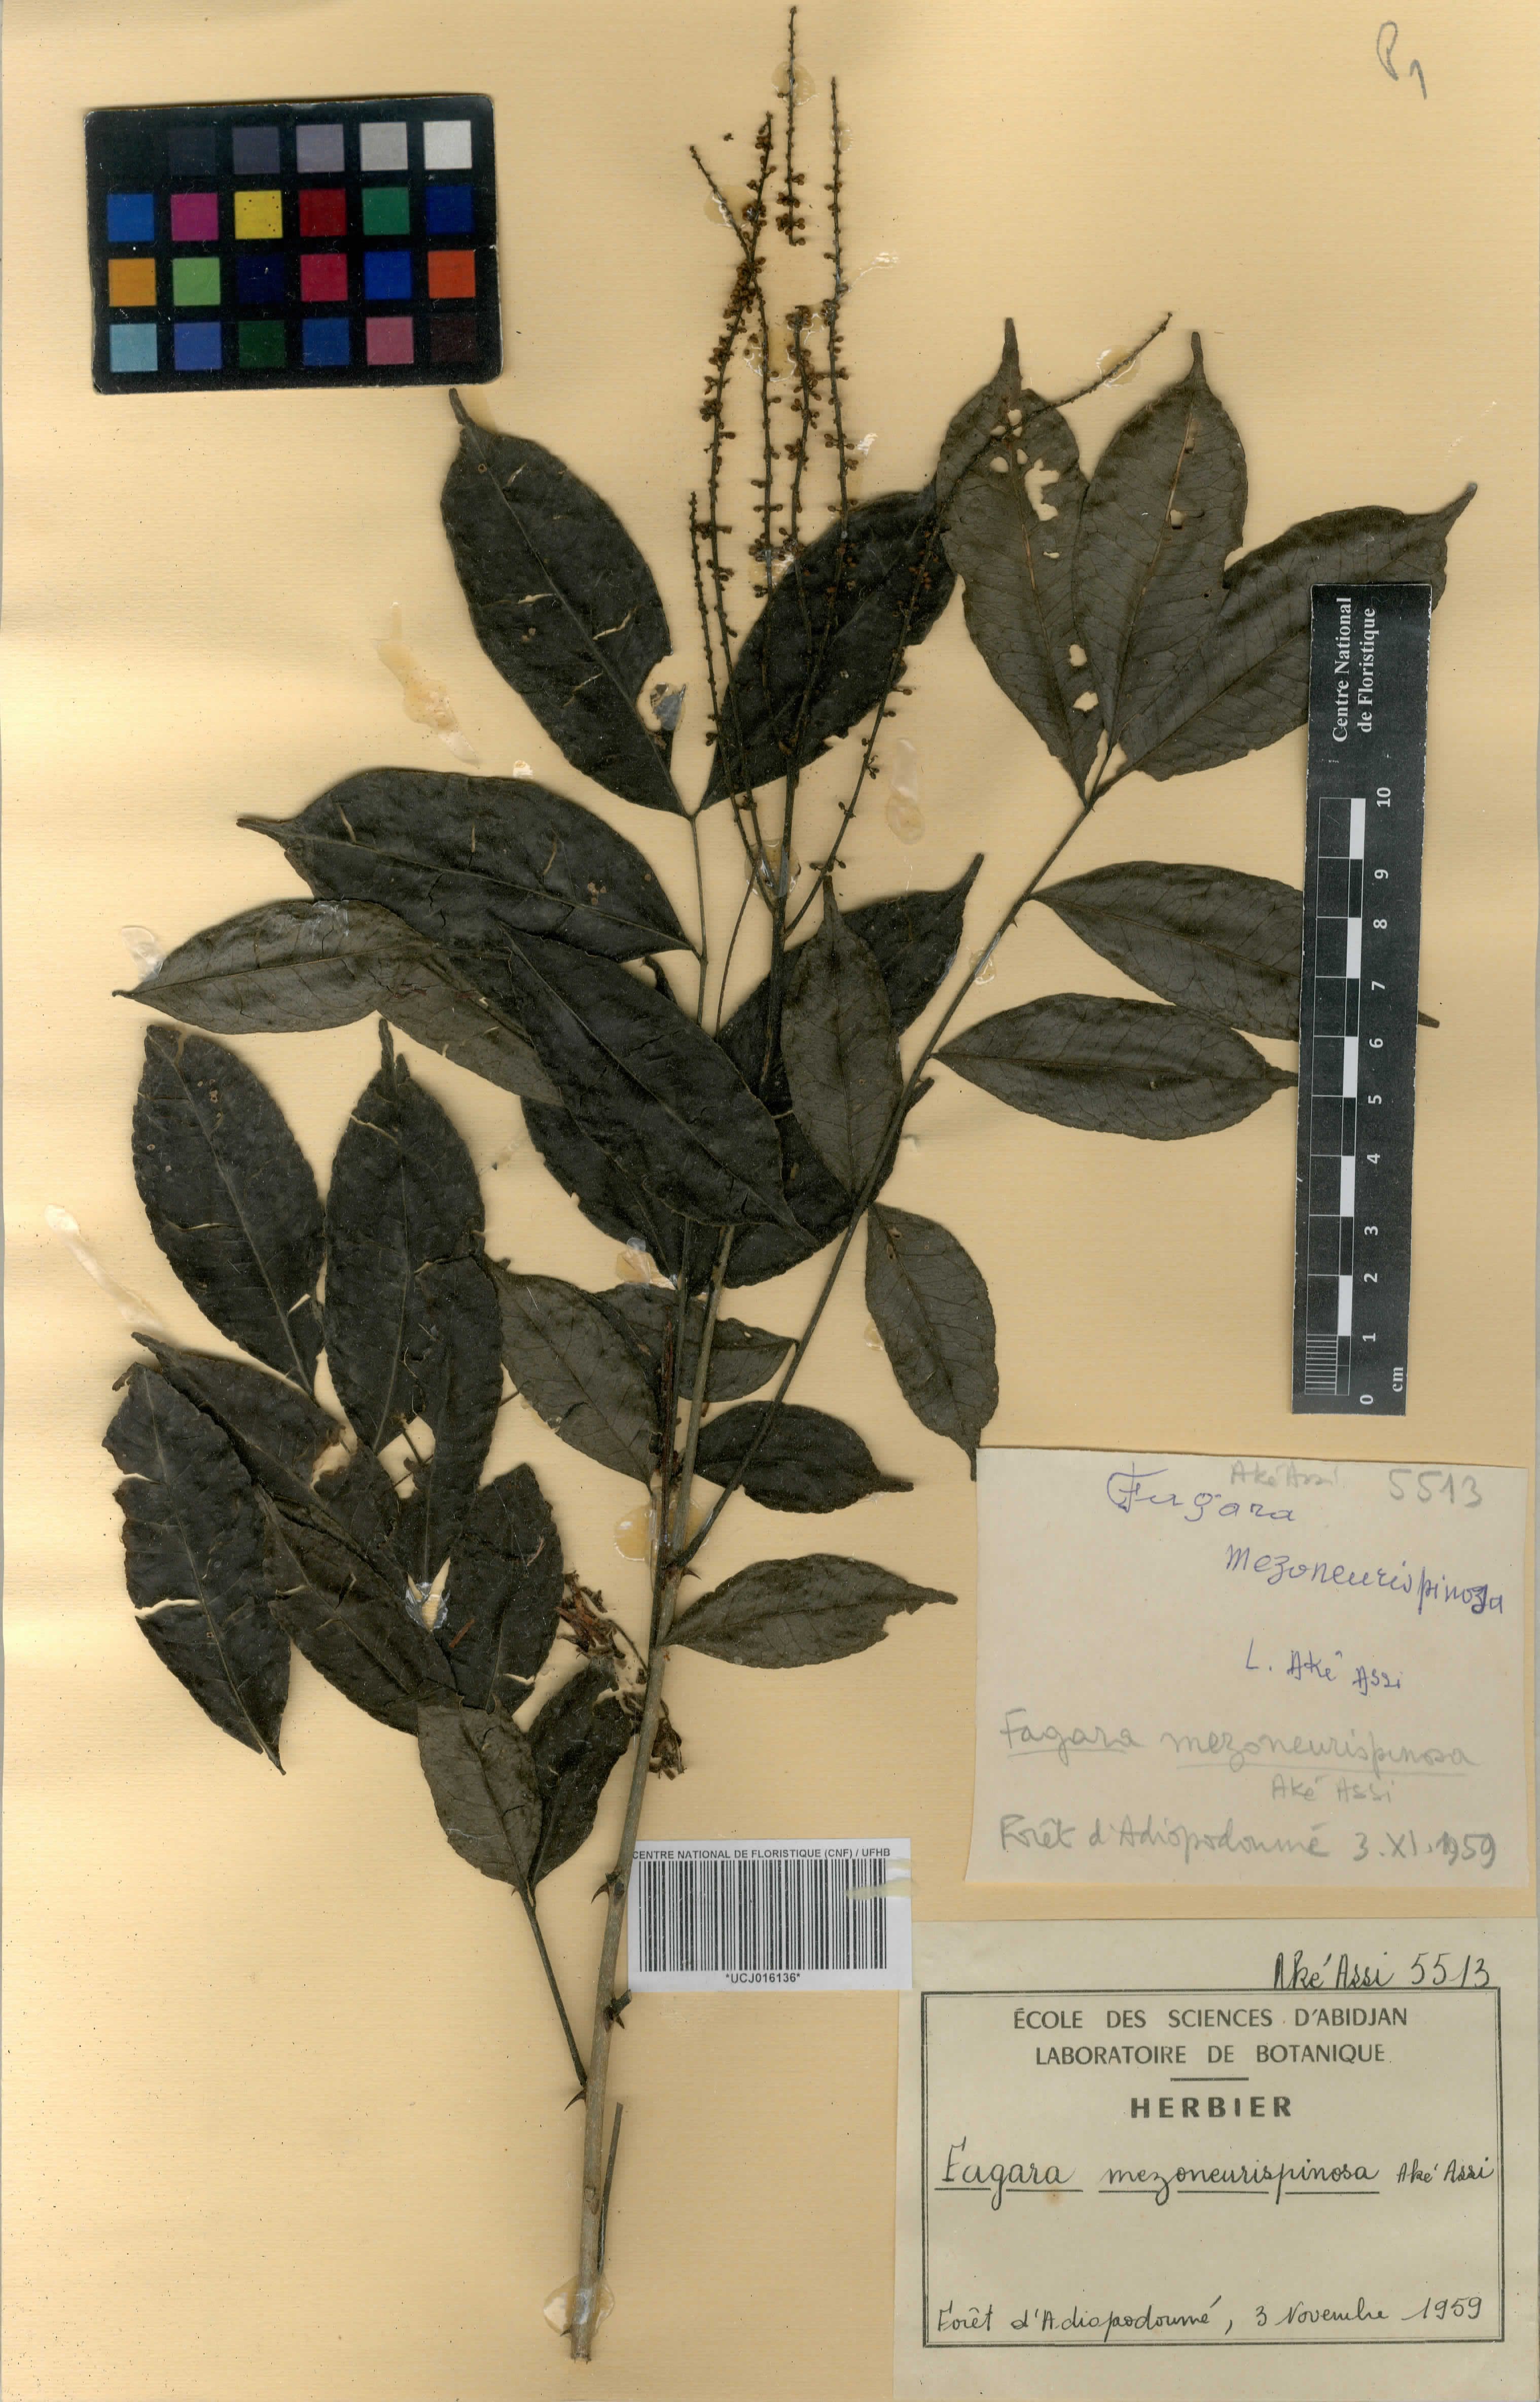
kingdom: Plantae
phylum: Tracheophyta
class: Magnoliopsida
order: Sapindales
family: Rutaceae
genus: Zanthoxylum
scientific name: Zanthoxylum mezoneurispinosum
